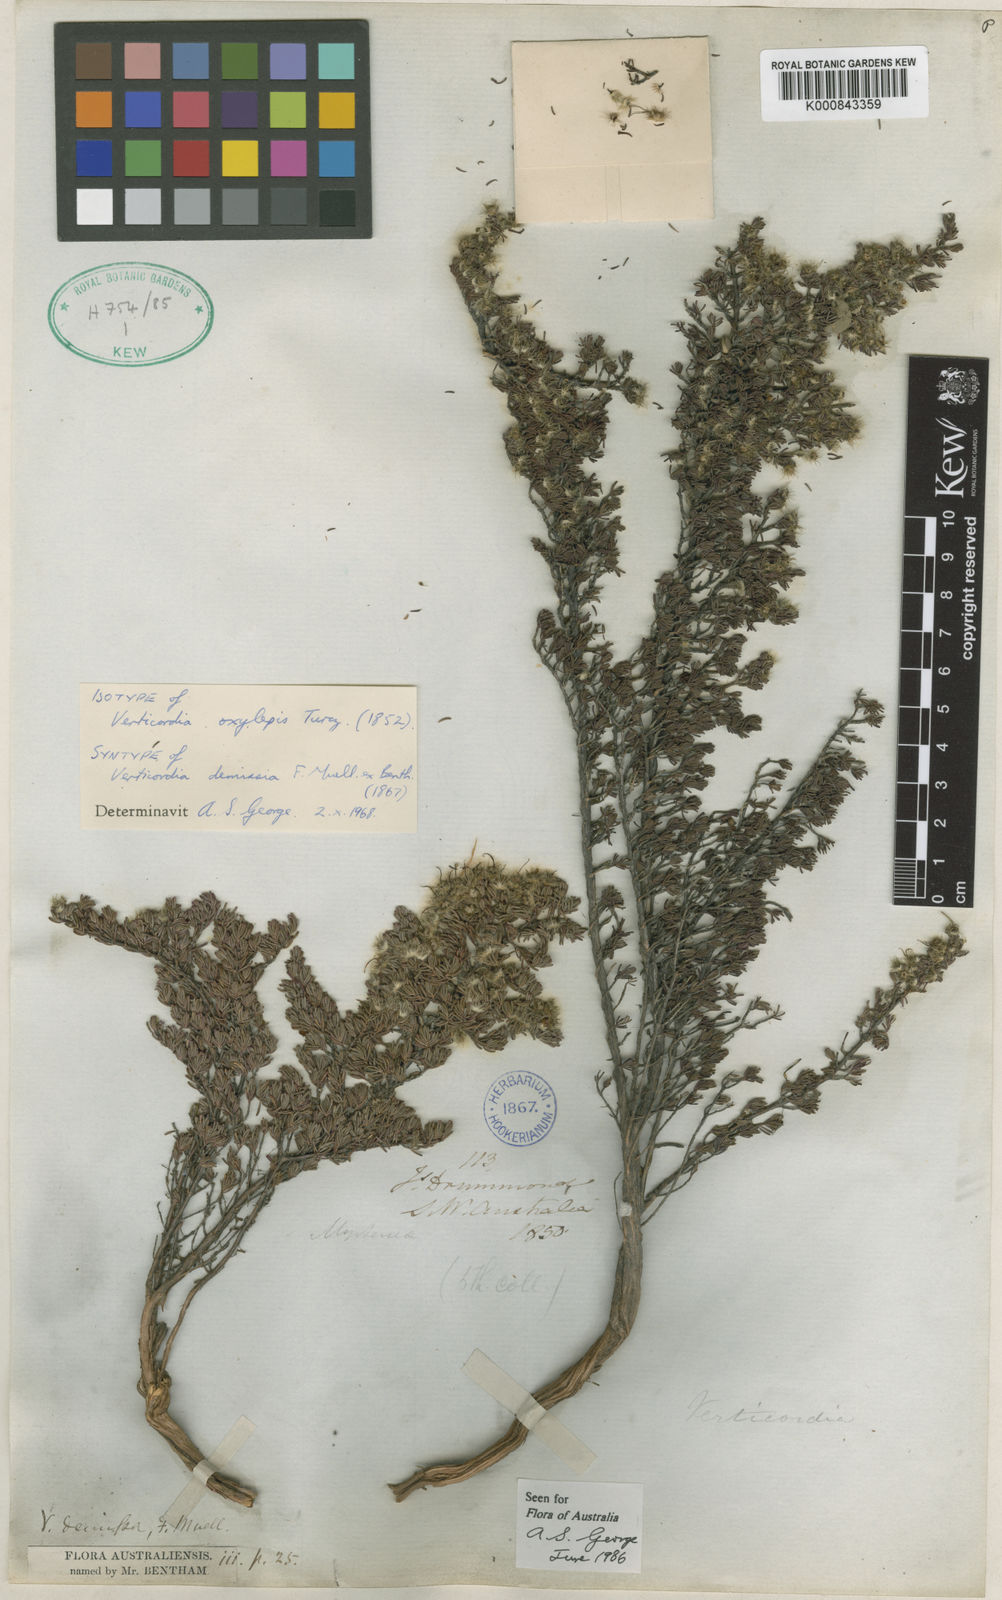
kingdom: Plantae
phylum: Tracheophyta
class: Magnoliopsida
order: Myrtales
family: Myrtaceae
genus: Verticordia
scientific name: Verticordia oxylepis
